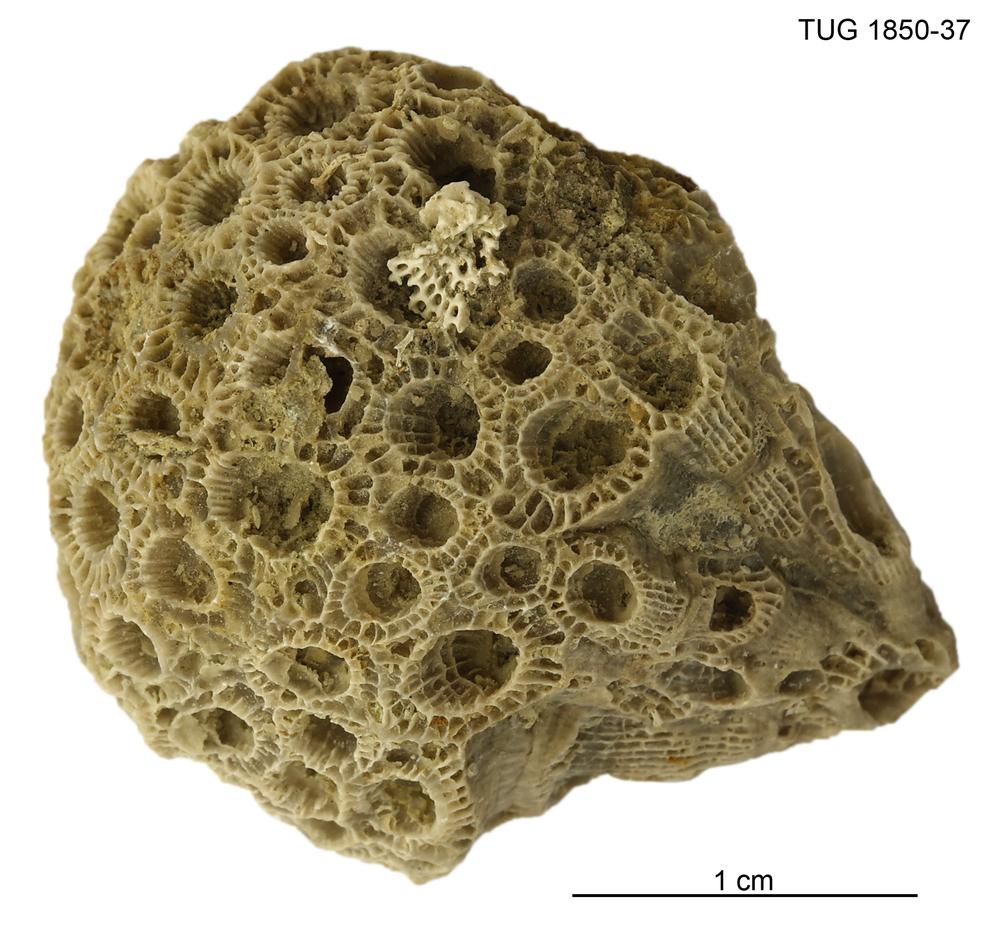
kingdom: Animalia
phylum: Cnidaria
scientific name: Cnidaria
